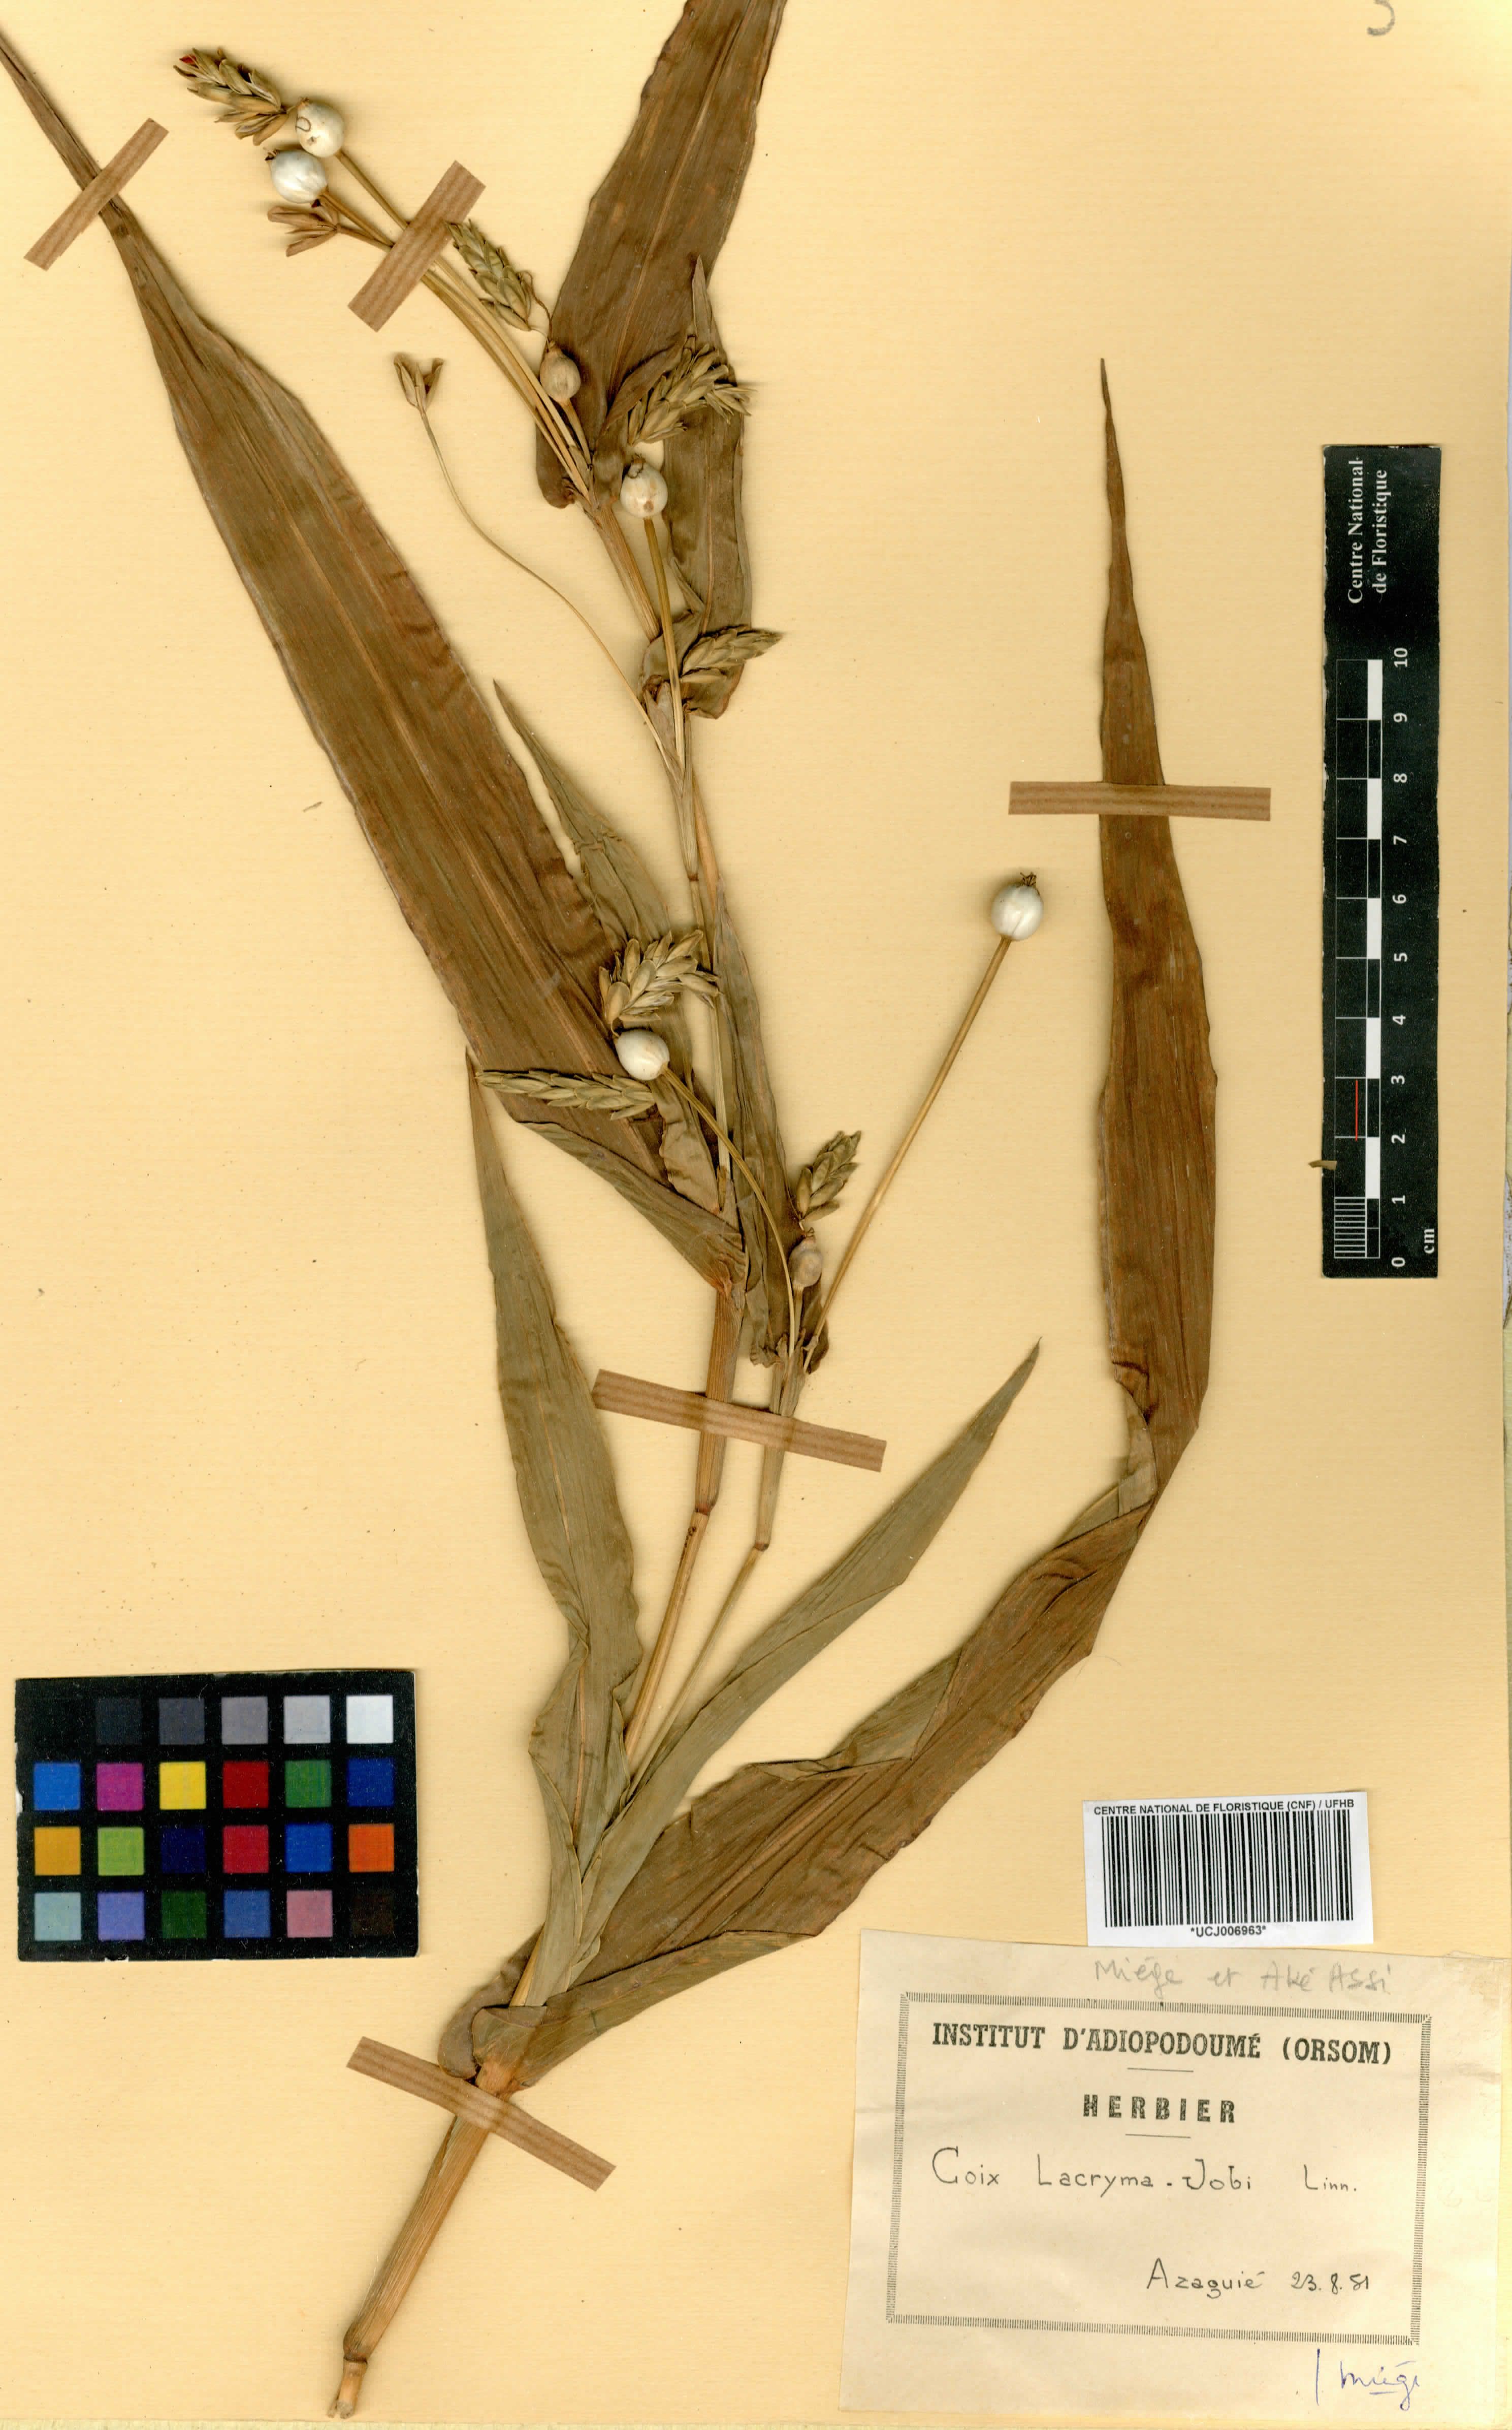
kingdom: Plantae
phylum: Tracheophyta
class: Liliopsida
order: Poales
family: Poaceae
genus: Coix
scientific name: Coix lacryma-jobi
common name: Job's tears
